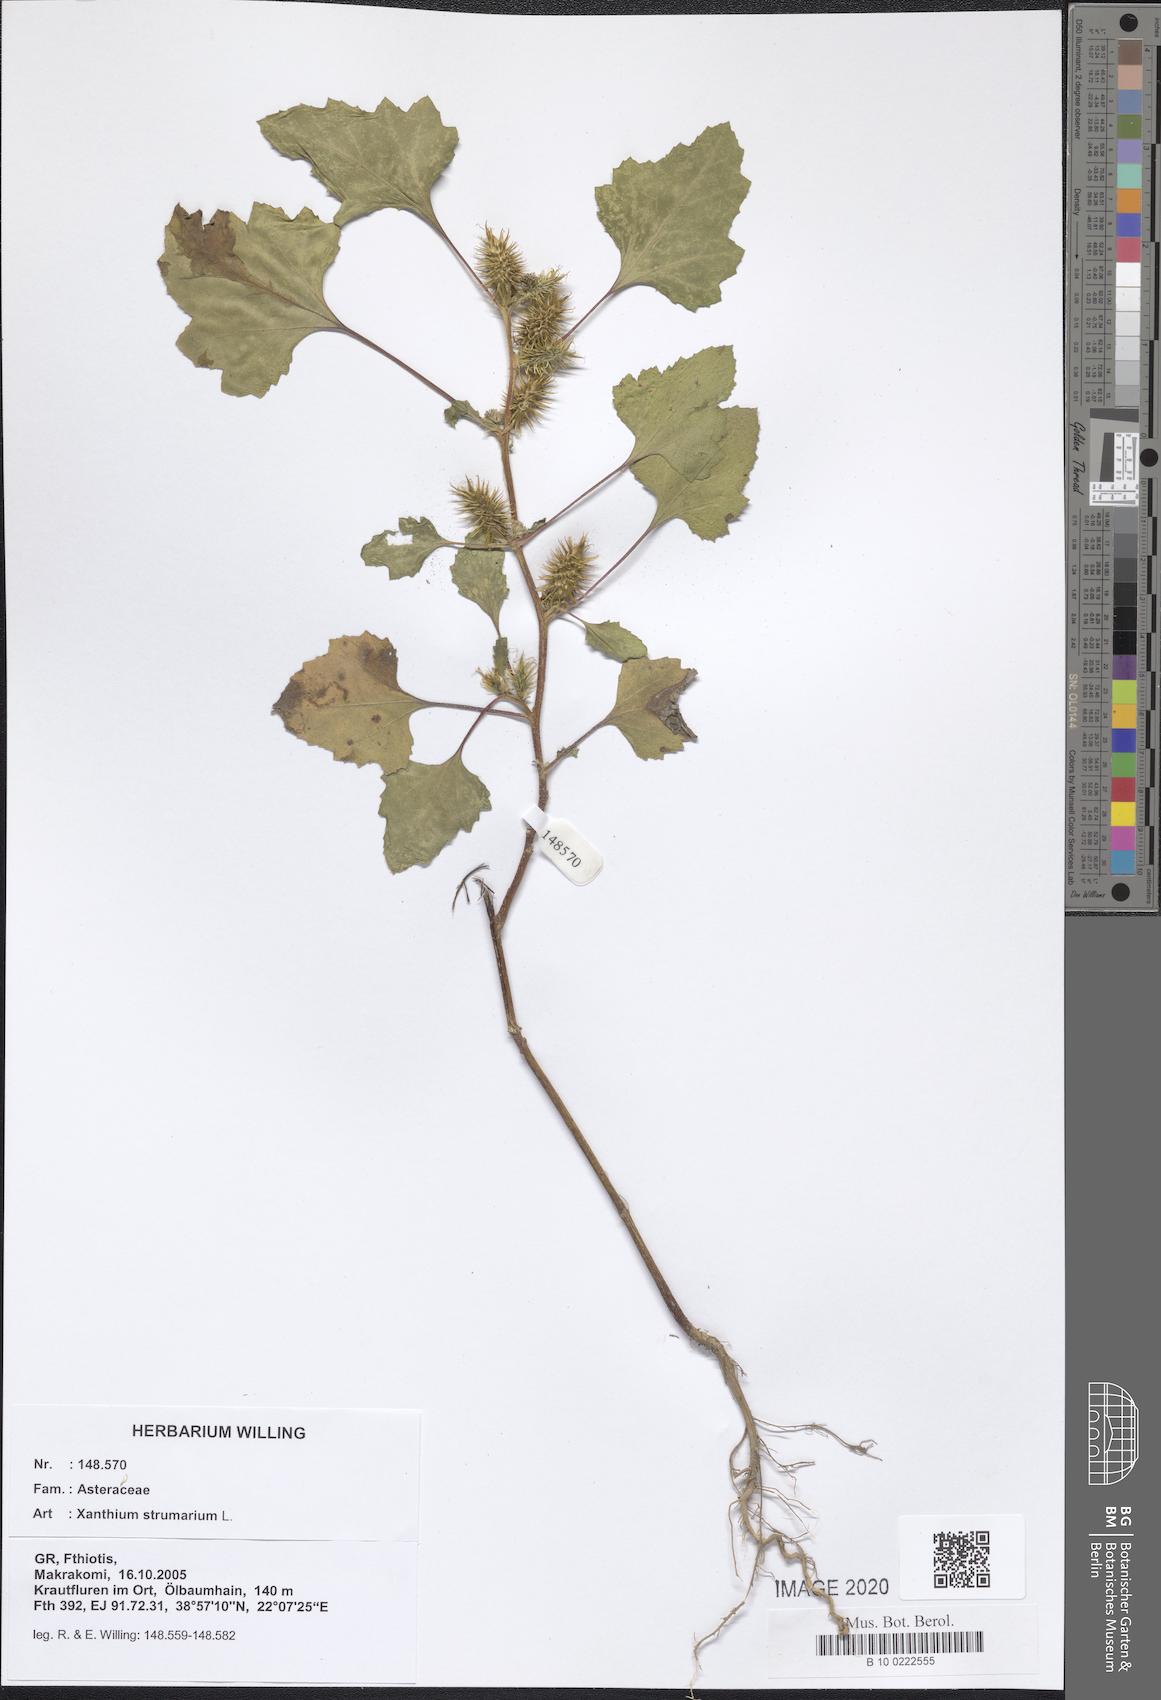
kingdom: Plantae
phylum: Tracheophyta
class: Magnoliopsida
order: Asterales
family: Asteraceae
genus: Xanthium
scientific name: Xanthium strumarium
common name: Rough cocklebur
